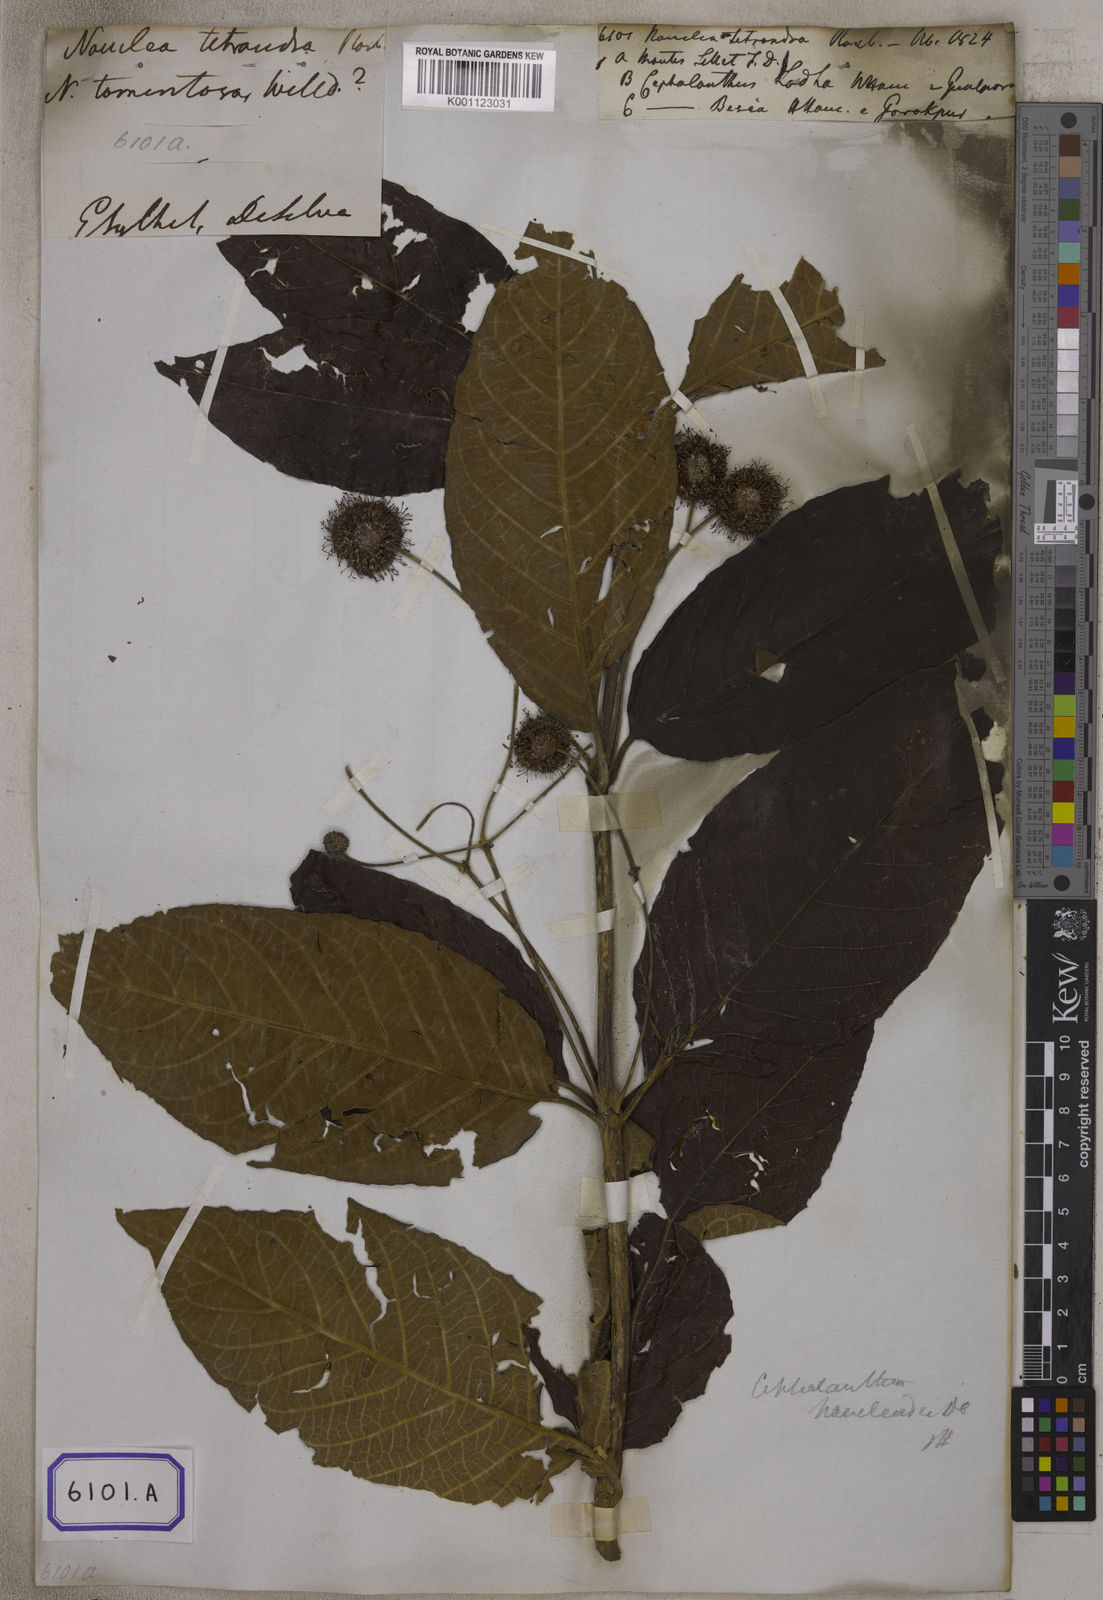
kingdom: Plantae
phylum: Tracheophyta
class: Magnoliopsida
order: Gentianales
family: Rubiaceae
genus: Cephalanthus
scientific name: Cephalanthus tetrandrus
